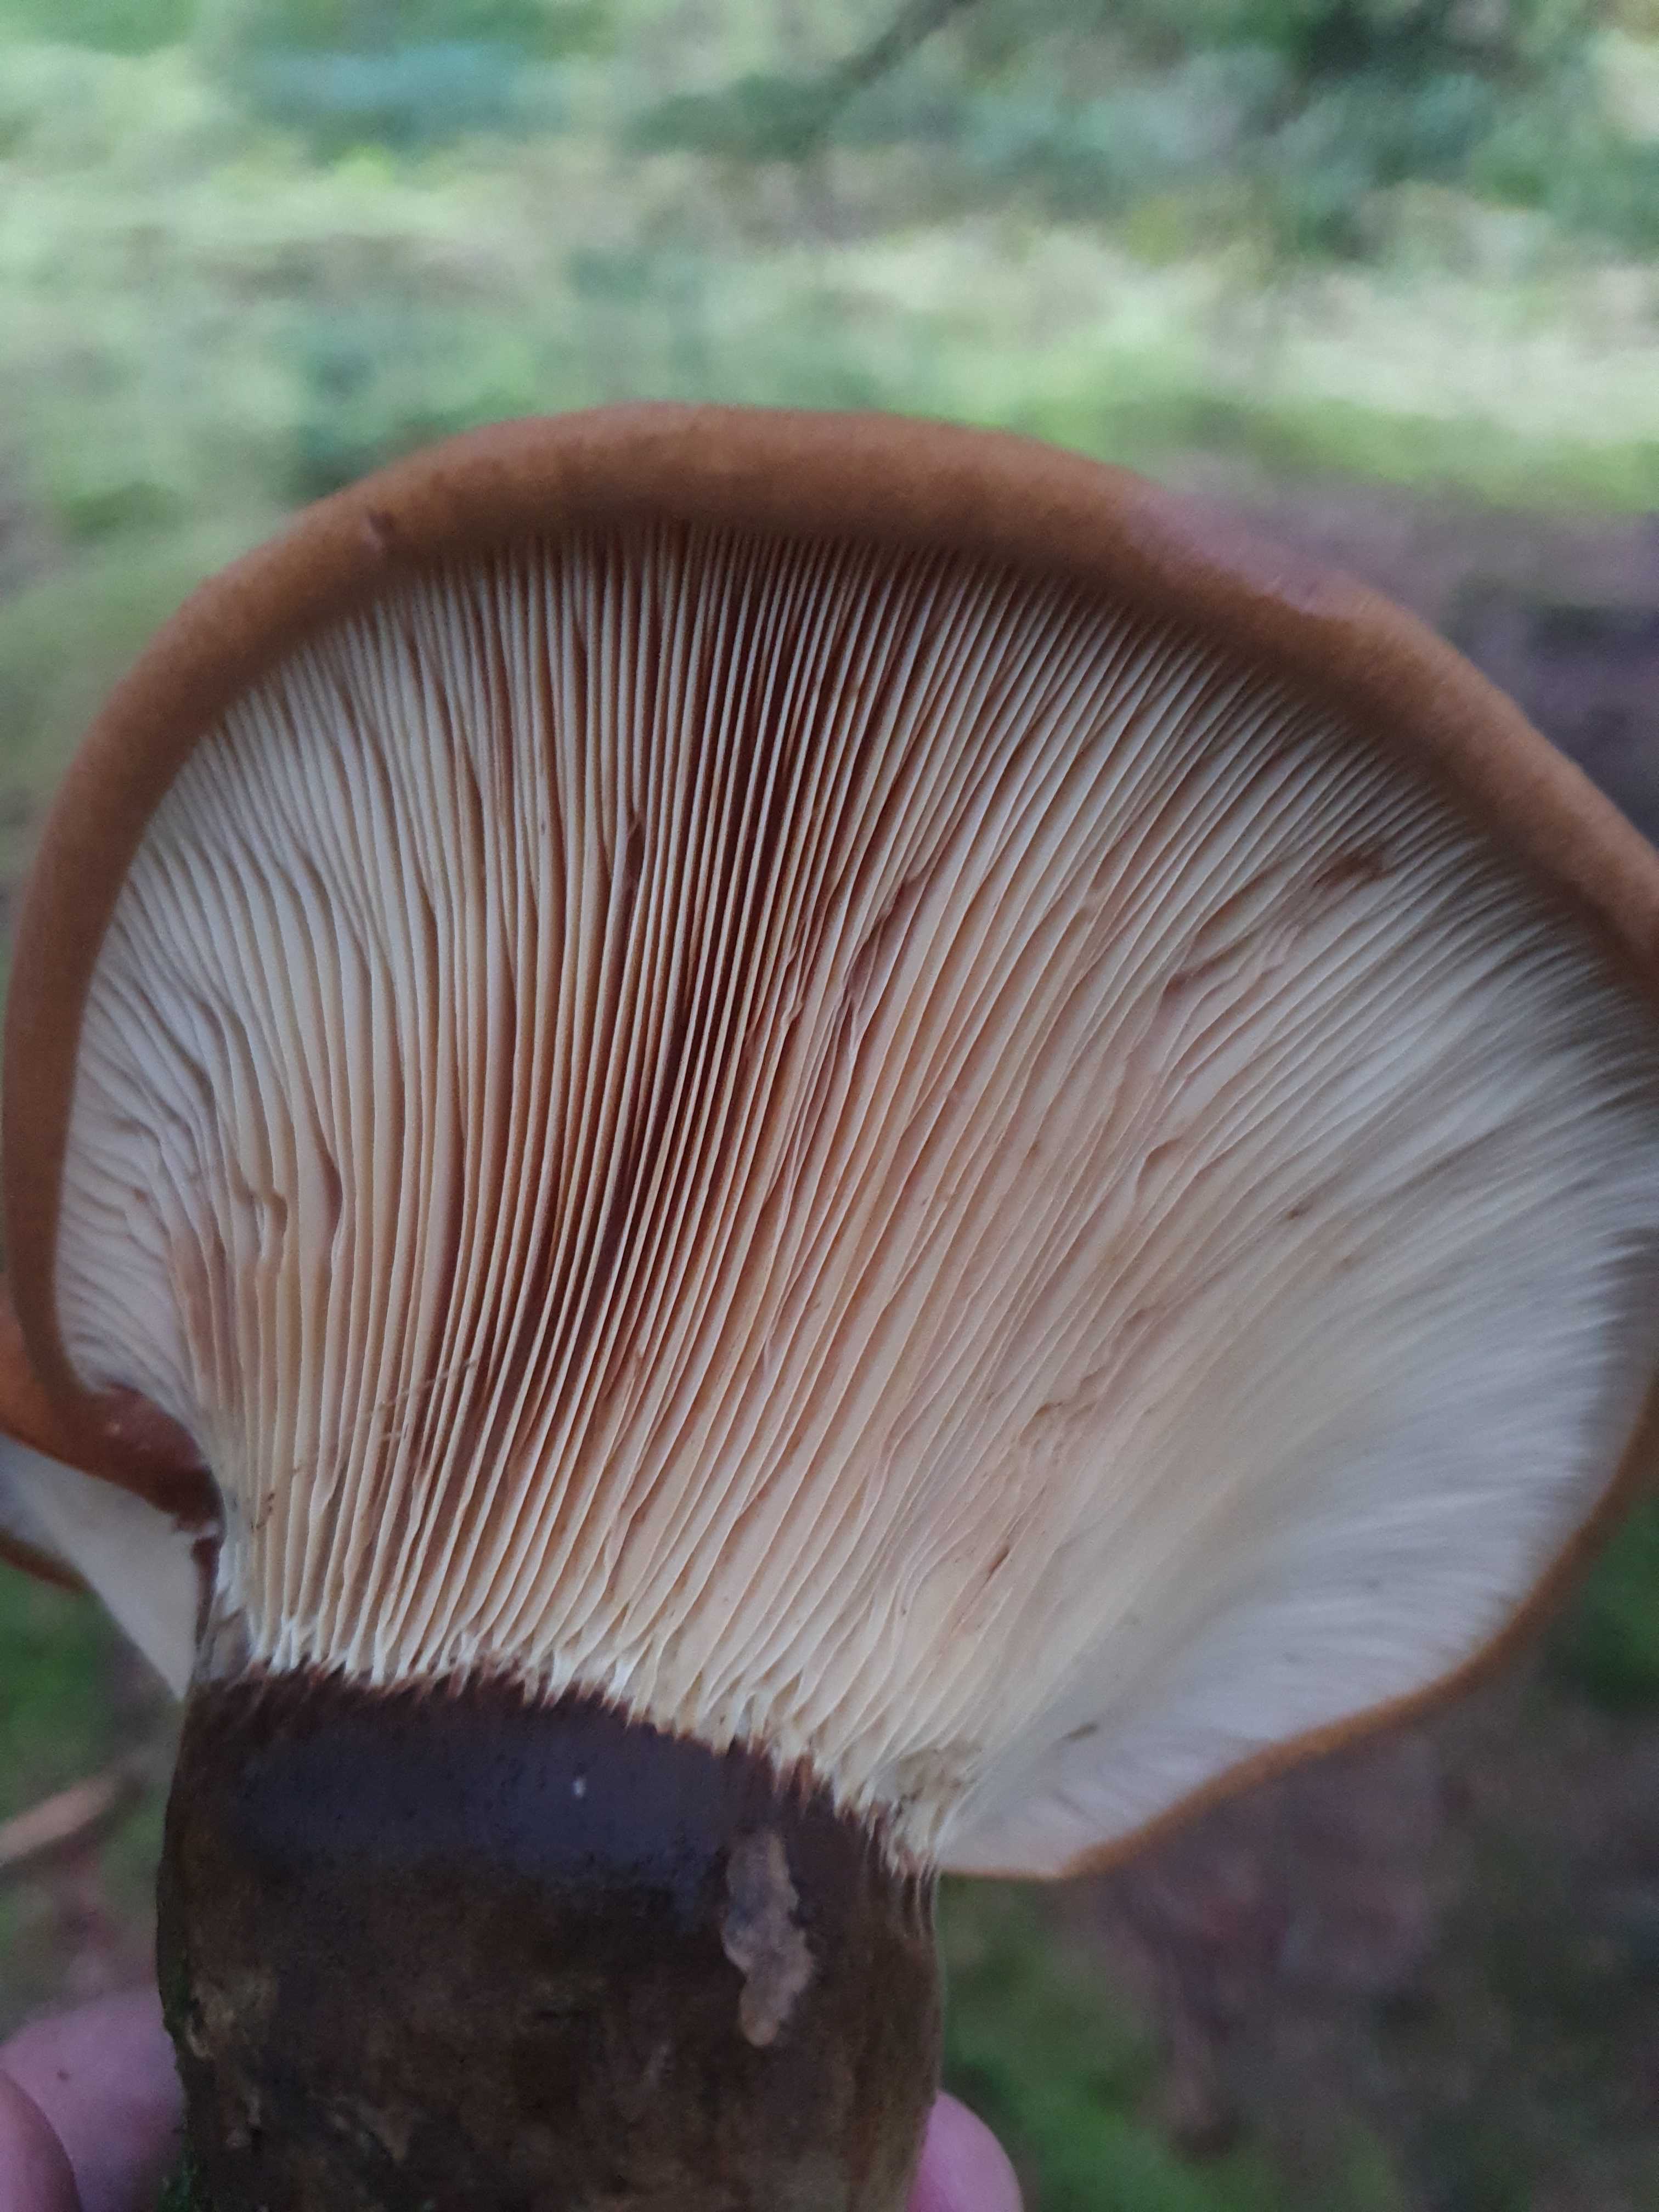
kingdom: Fungi
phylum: Basidiomycota
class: Agaricomycetes
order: Boletales
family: Tapinellaceae
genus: Tapinella
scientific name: Tapinella atrotomentosa
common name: sortfiltet viftesvamp
